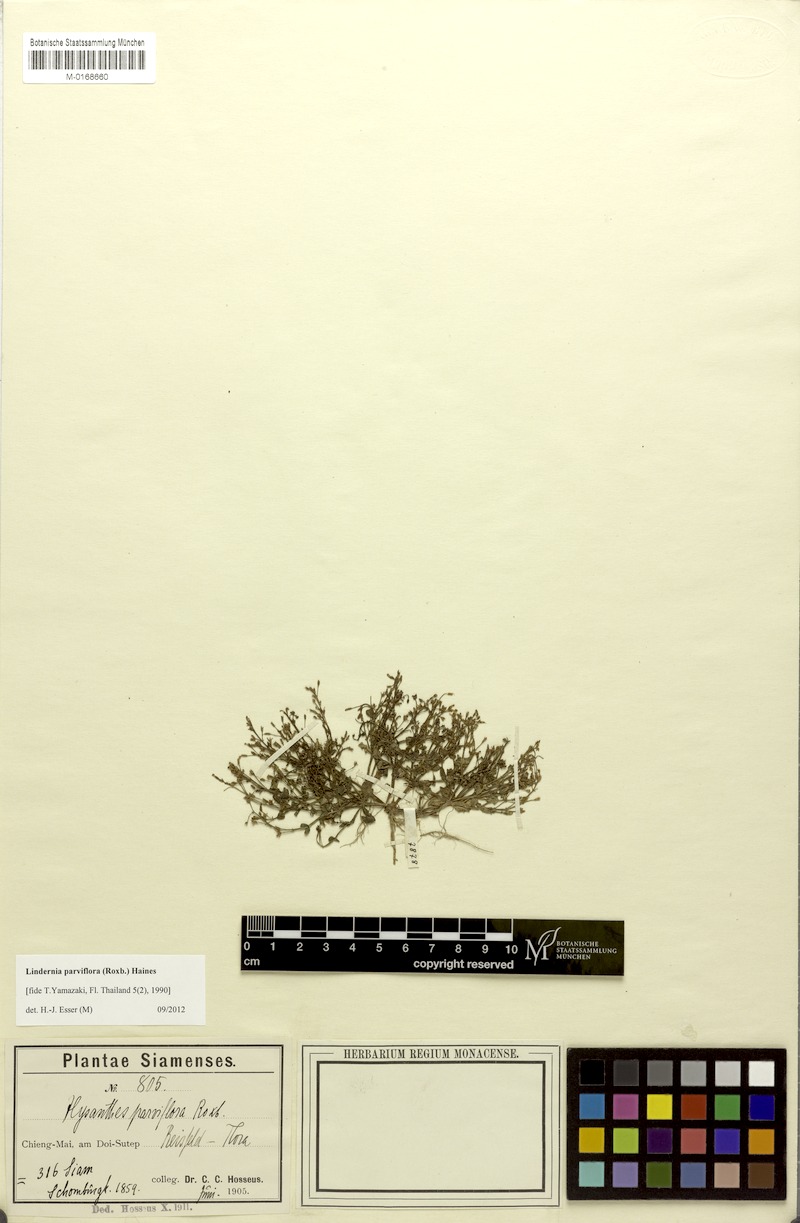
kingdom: Plantae
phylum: Tracheophyta
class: Magnoliopsida
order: Lamiales
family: Linderniaceae
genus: Lindernia
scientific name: Lindernia parviflora
